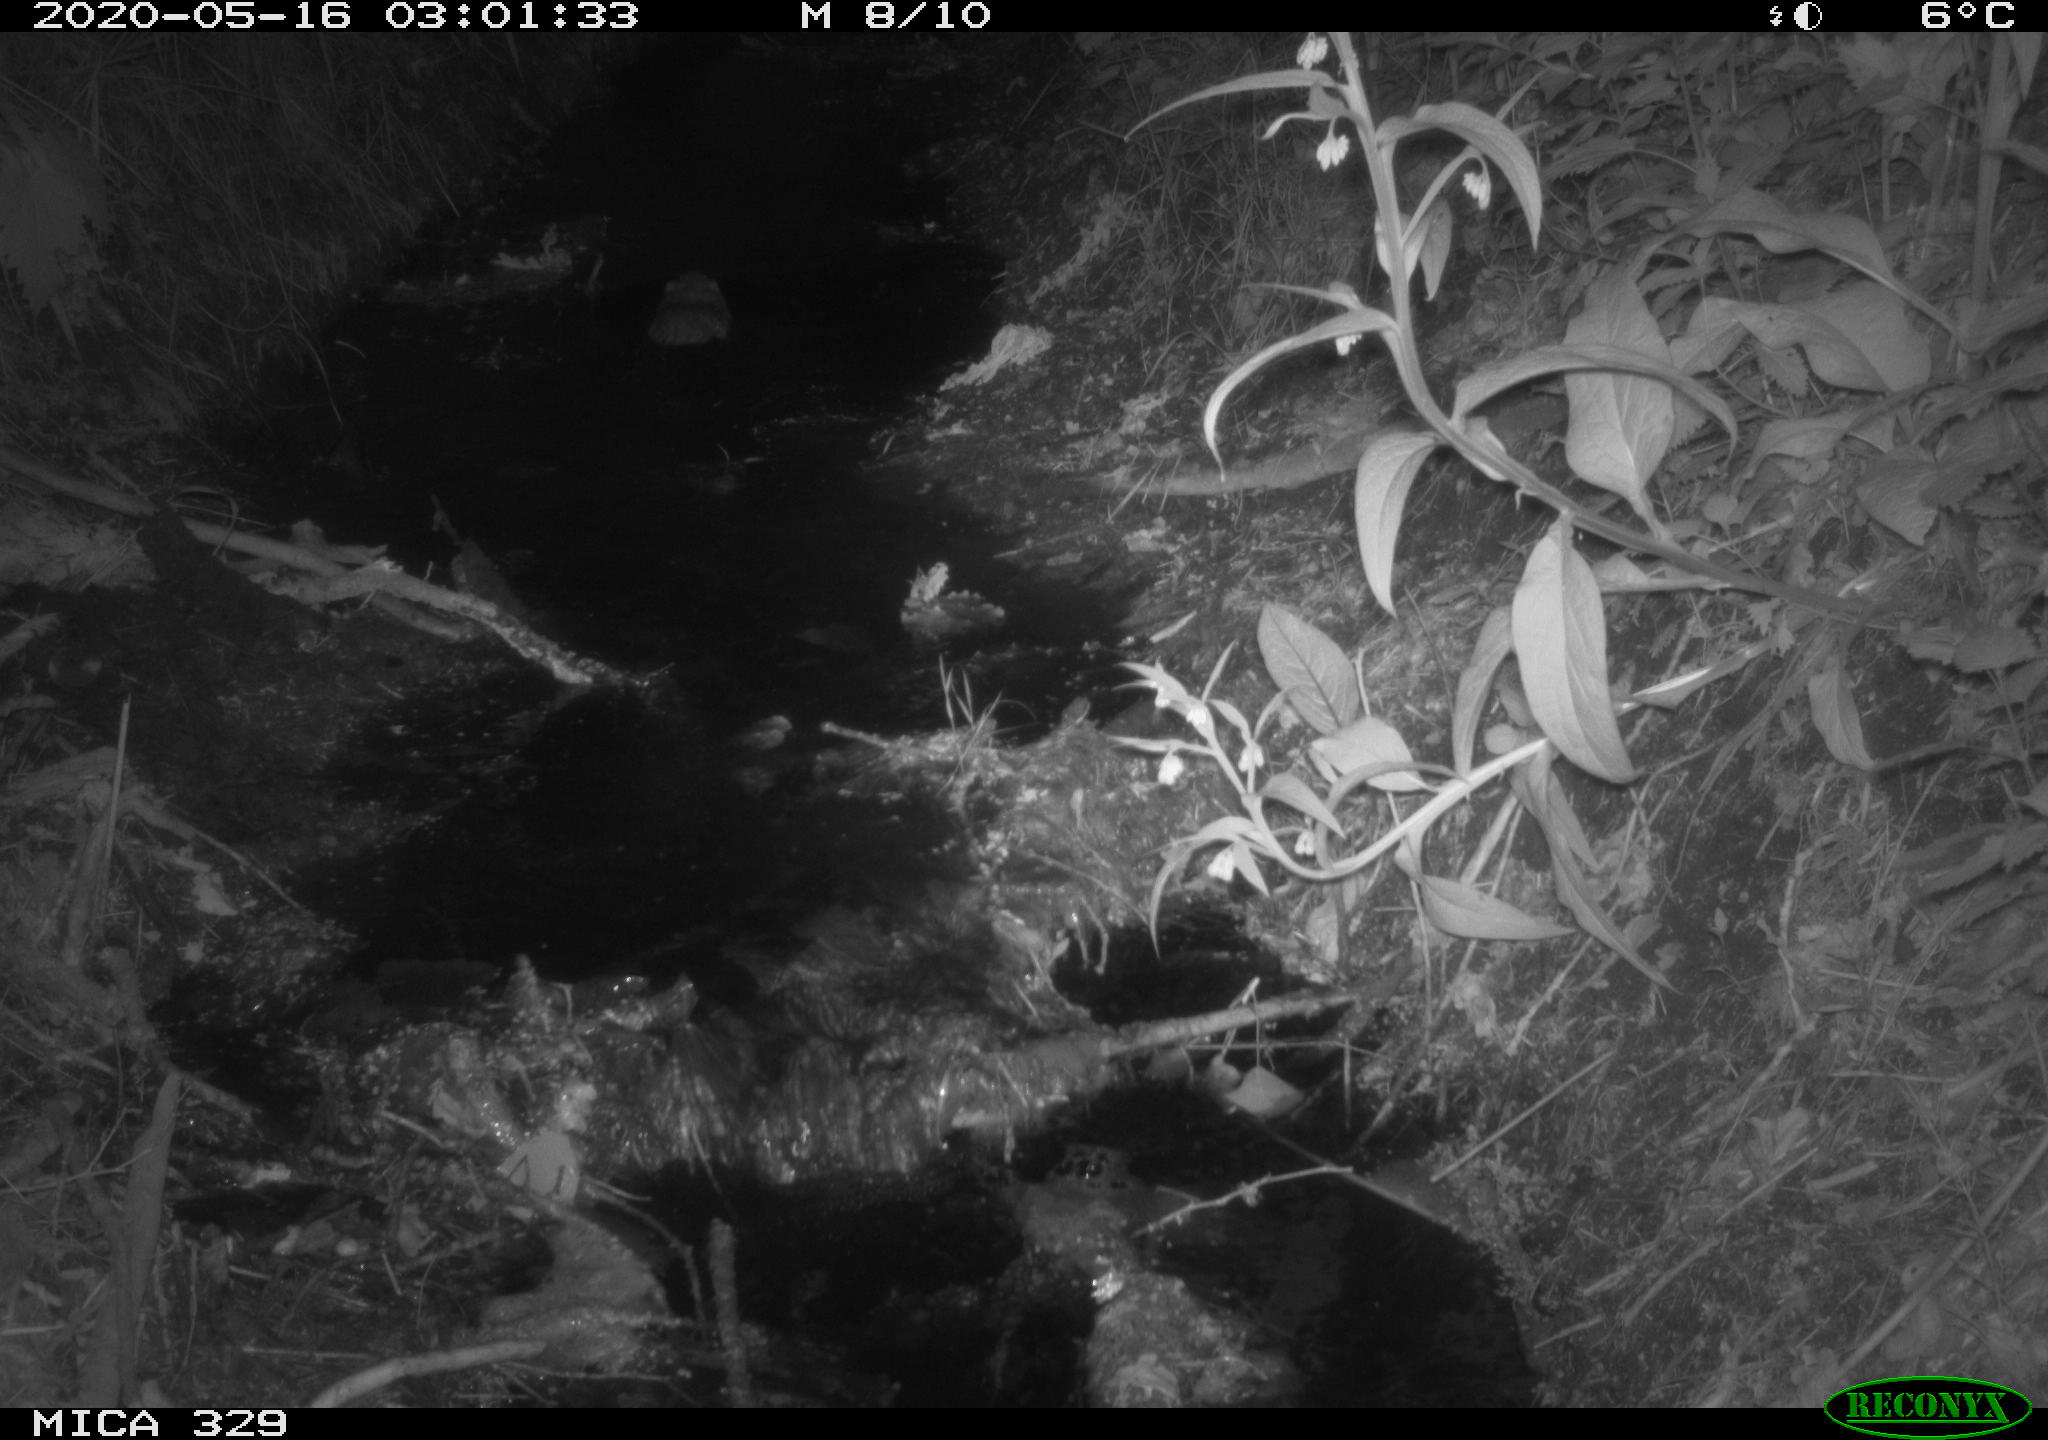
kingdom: Animalia
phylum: Chordata
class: Mammalia
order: Rodentia
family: Cricetidae
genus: Ondatra
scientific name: Ondatra zibethicus
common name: Muskrat
